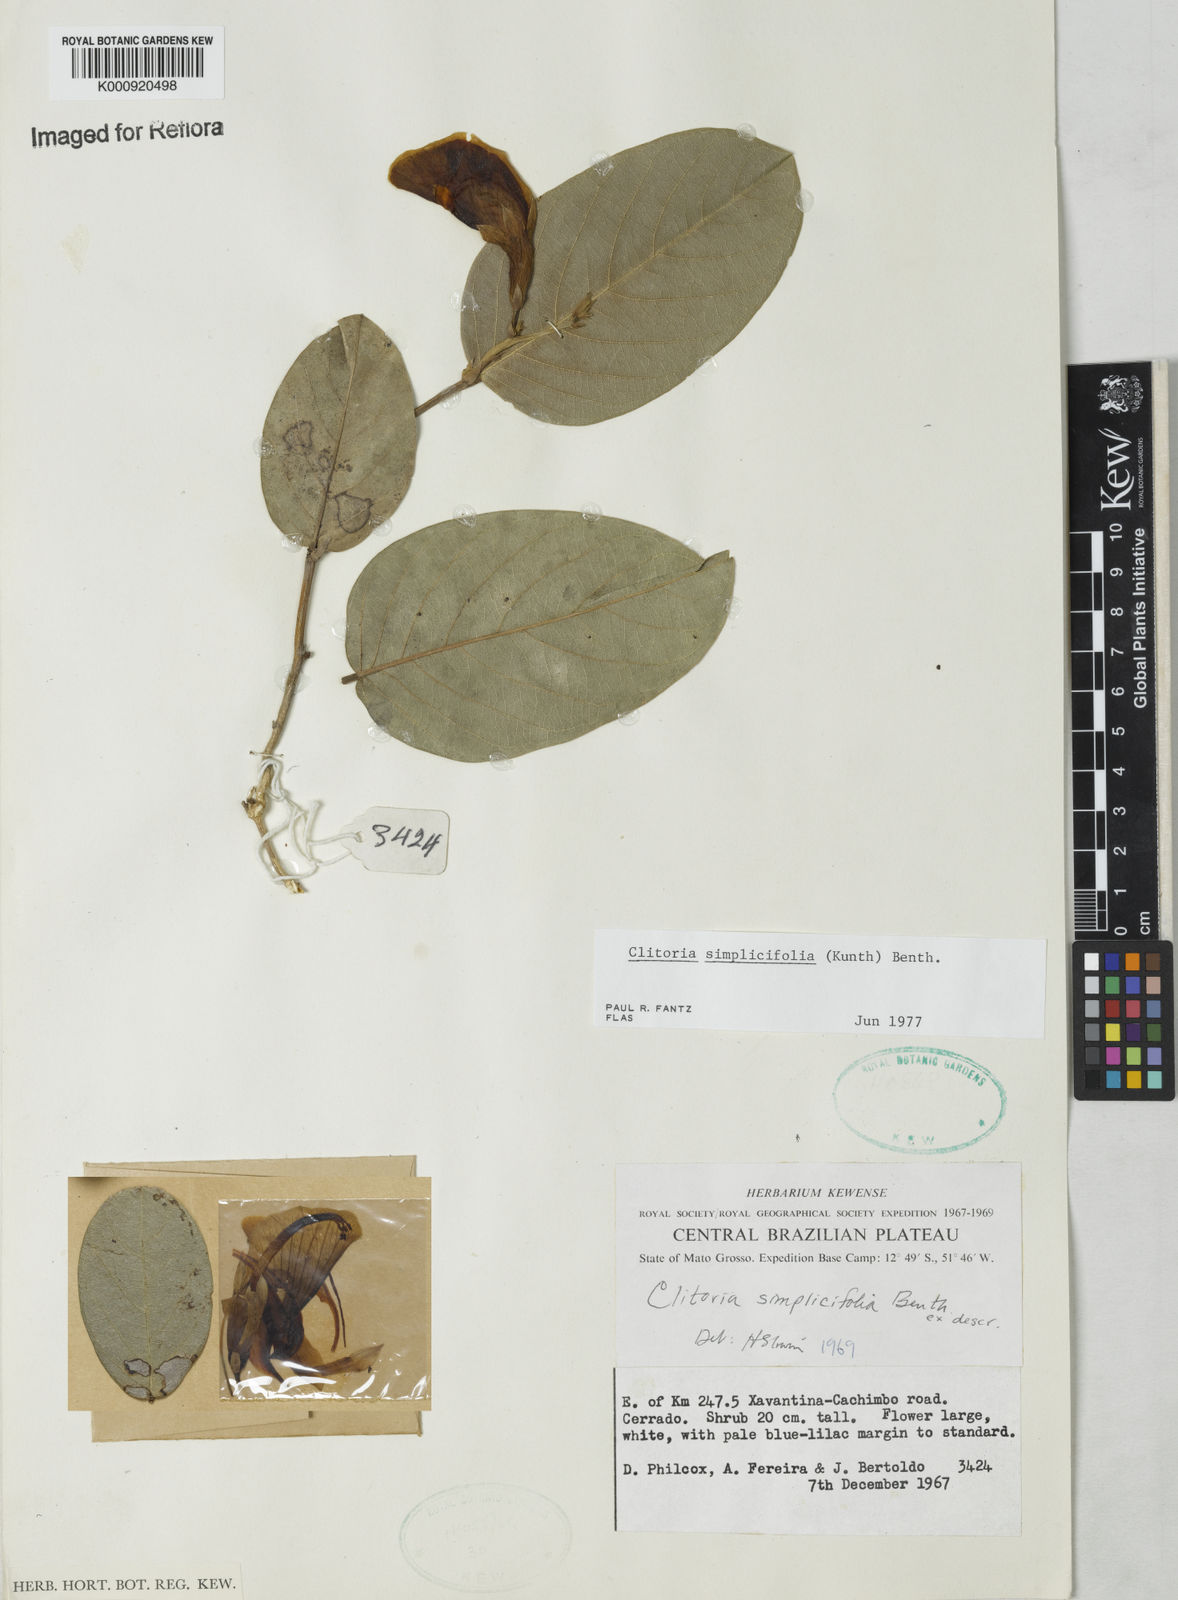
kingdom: Plantae
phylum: Tracheophyta
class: Magnoliopsida
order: Fabales
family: Fabaceae
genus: Clitoria
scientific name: Clitoria simplicifolia
